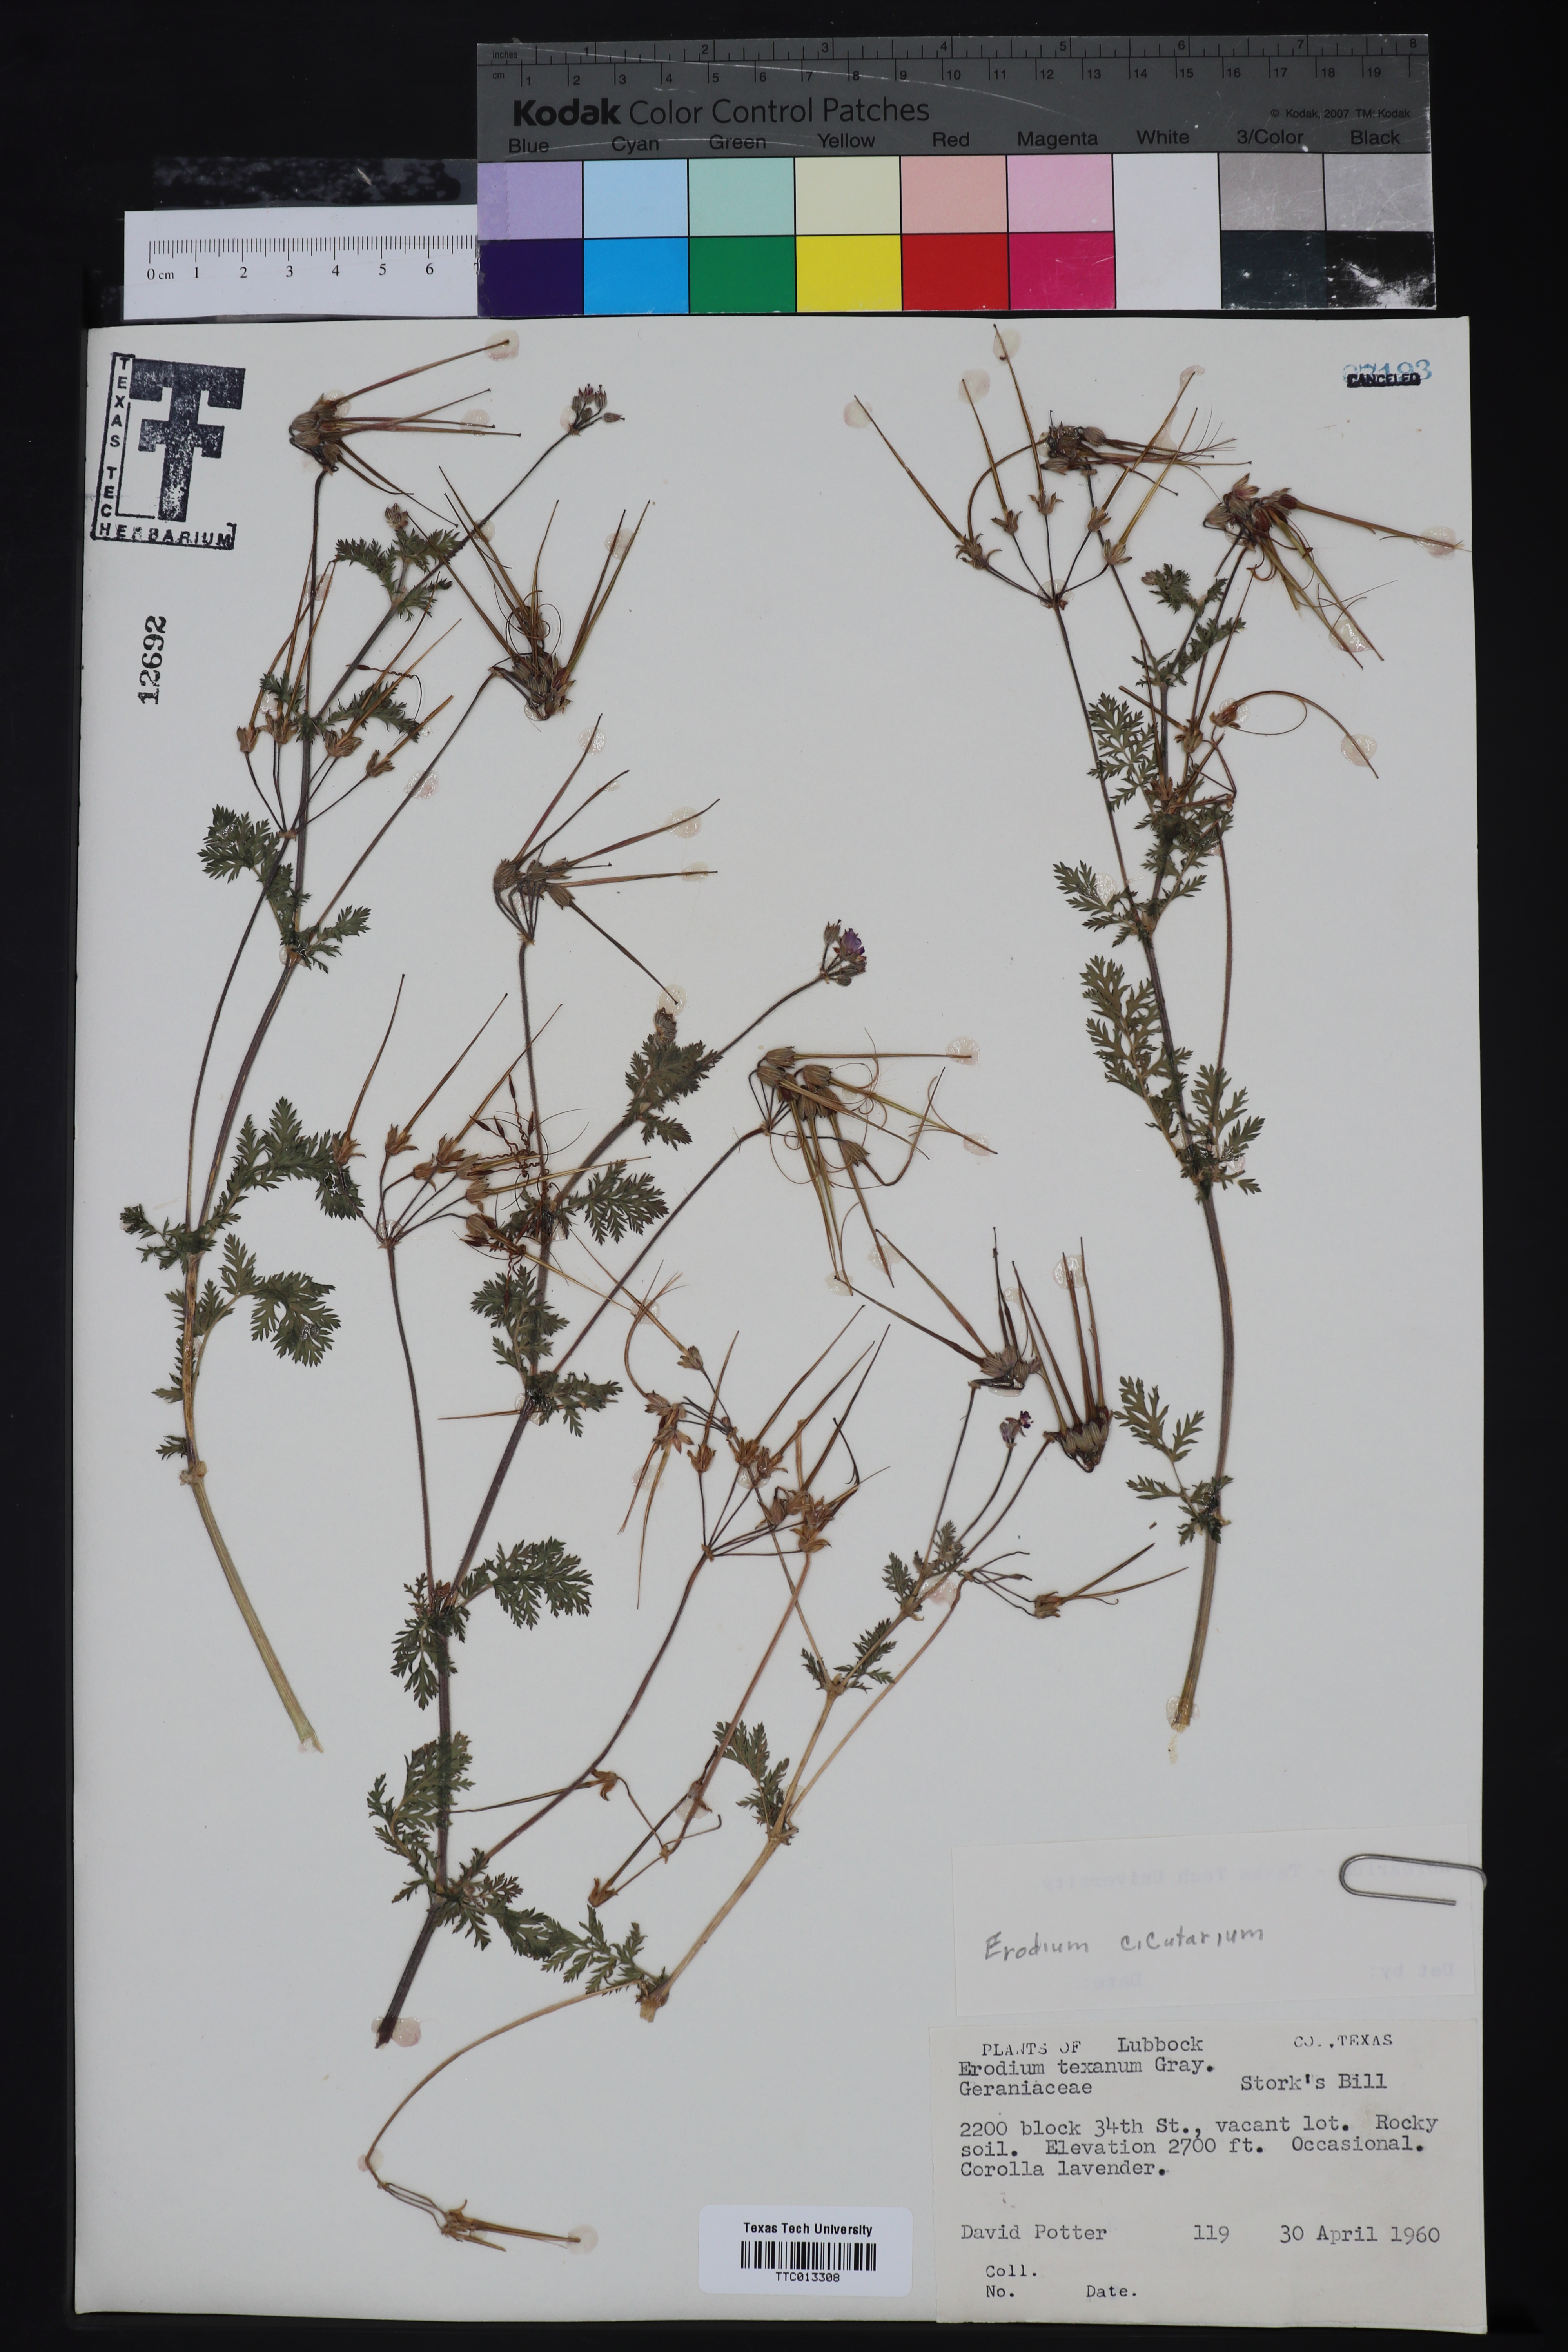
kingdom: Plantae
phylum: Tracheophyta
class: Magnoliopsida
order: Geraniales
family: Geraniaceae
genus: Erodium
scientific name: Erodium cicutarium
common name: Common stork's-bill
